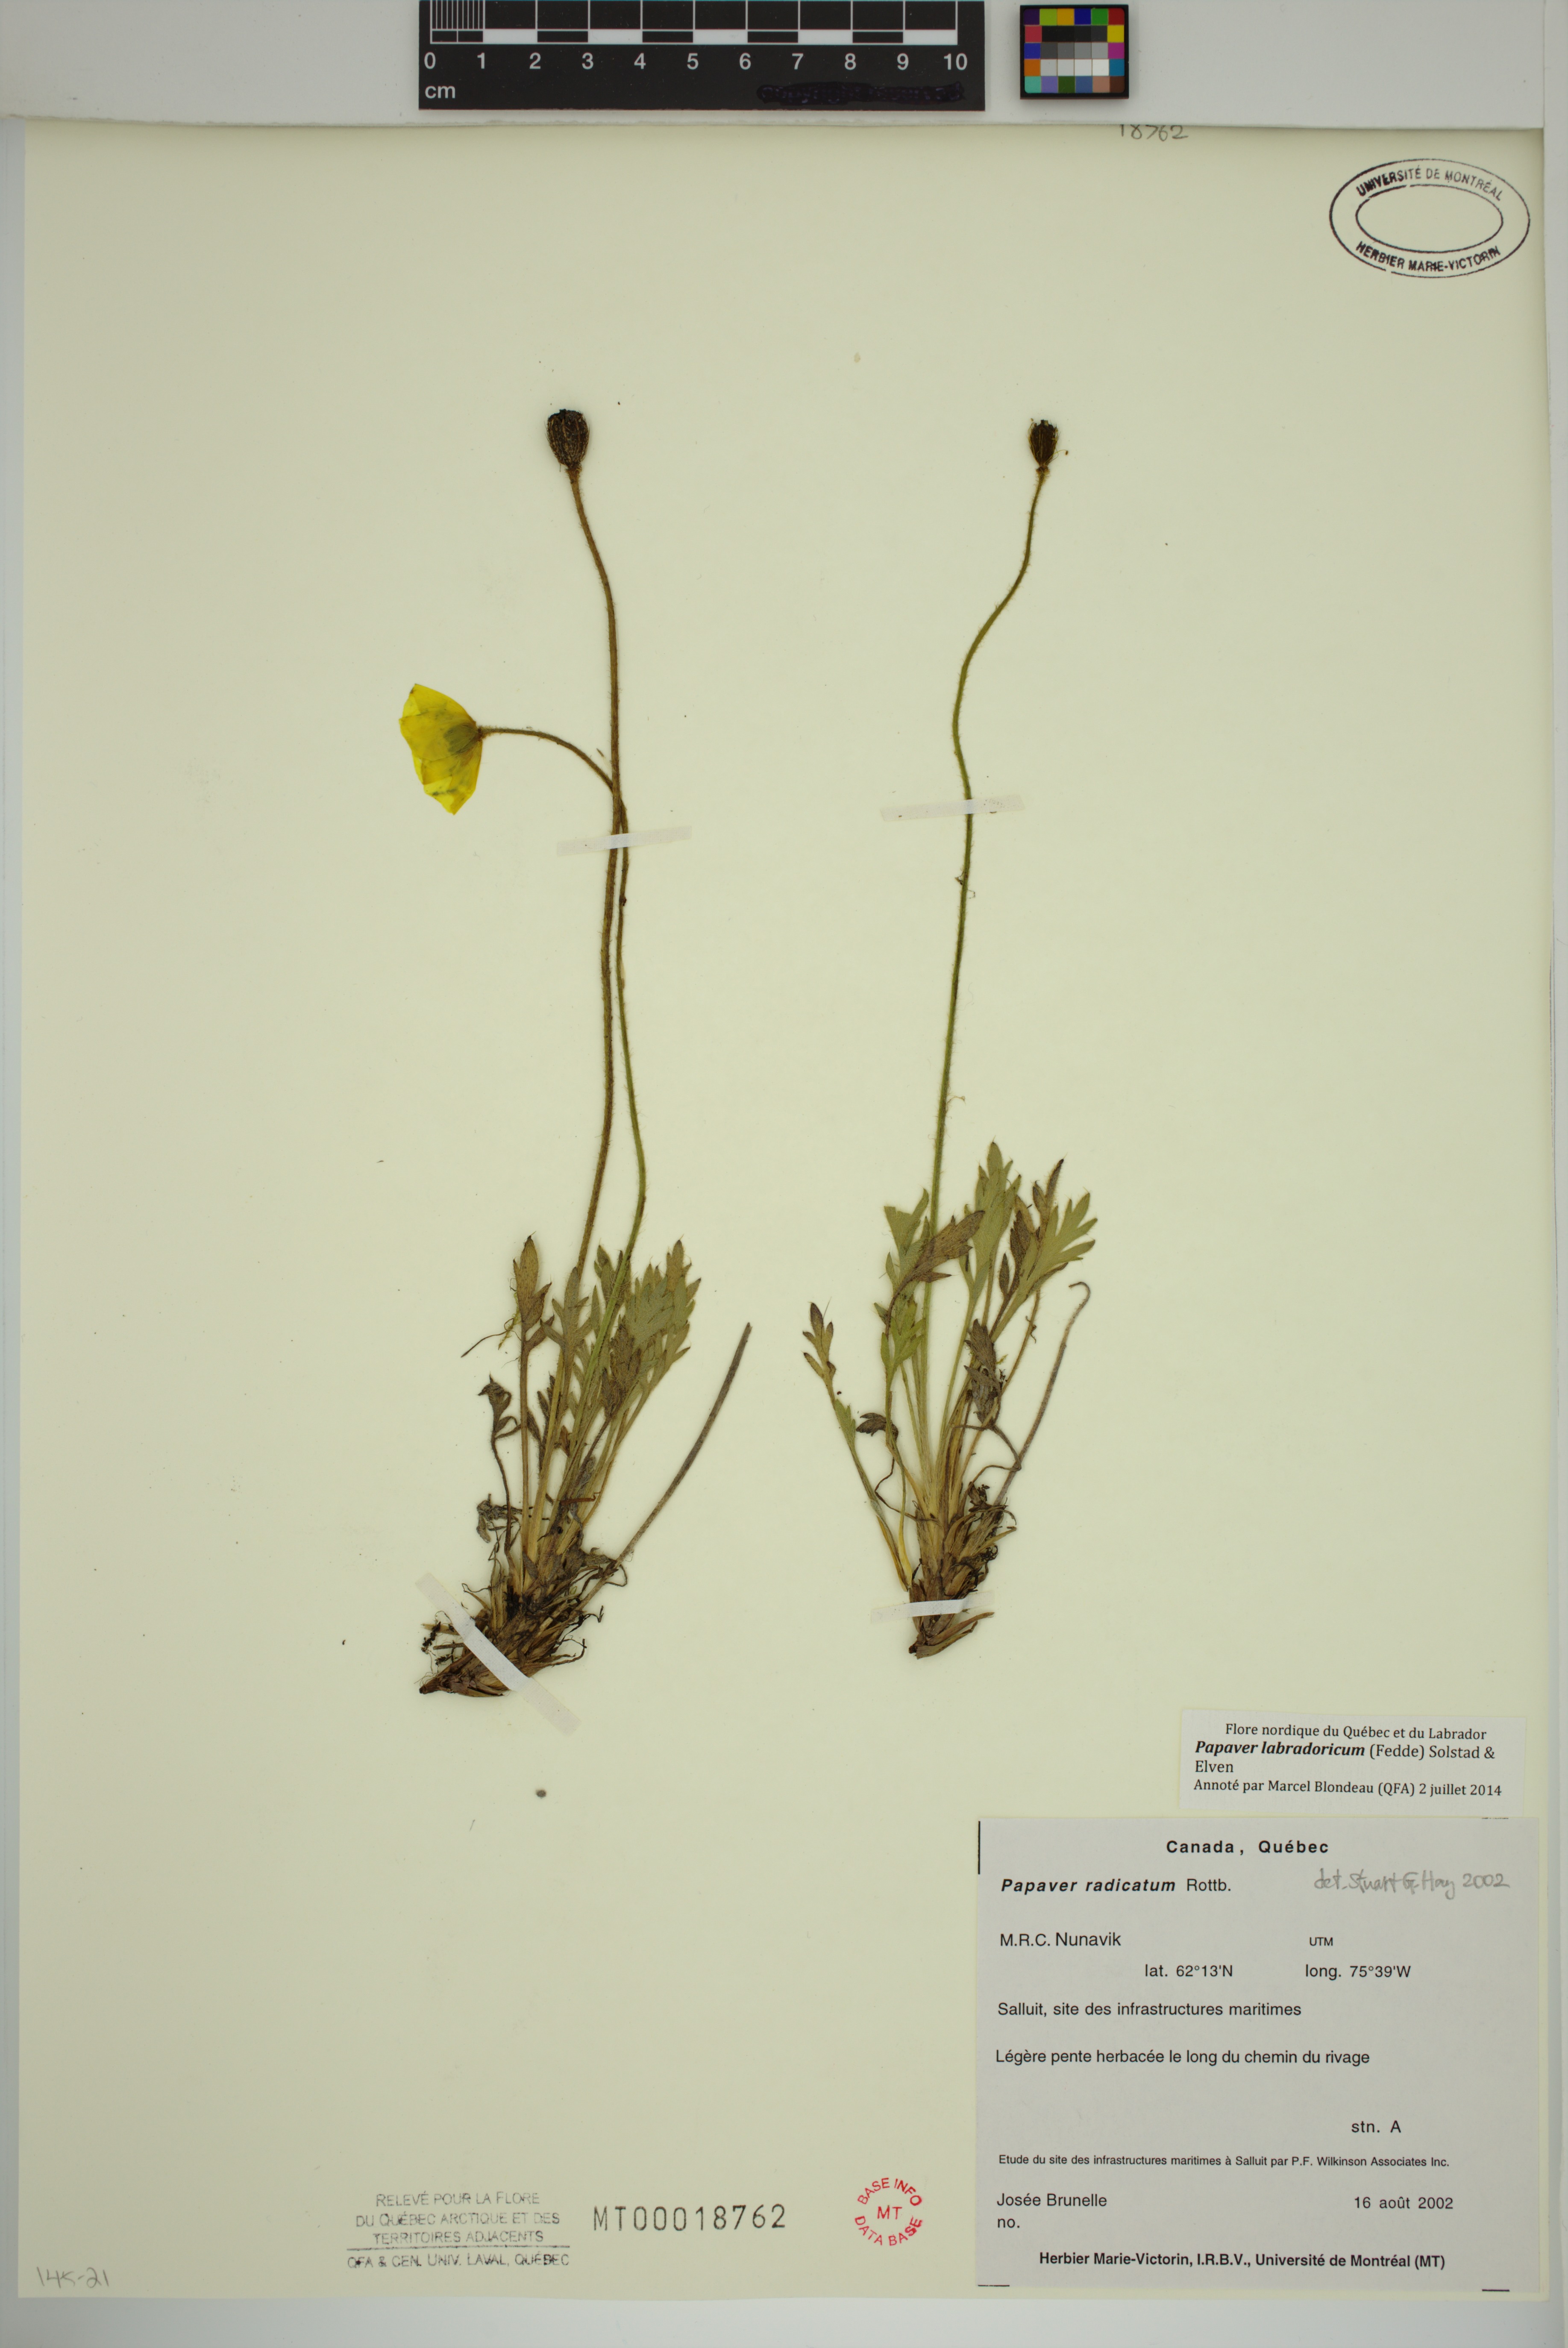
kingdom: Plantae
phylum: Tracheophyta
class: Magnoliopsida
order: Ranunculales
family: Papaveraceae
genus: Papaver
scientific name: Papaver radicatum
